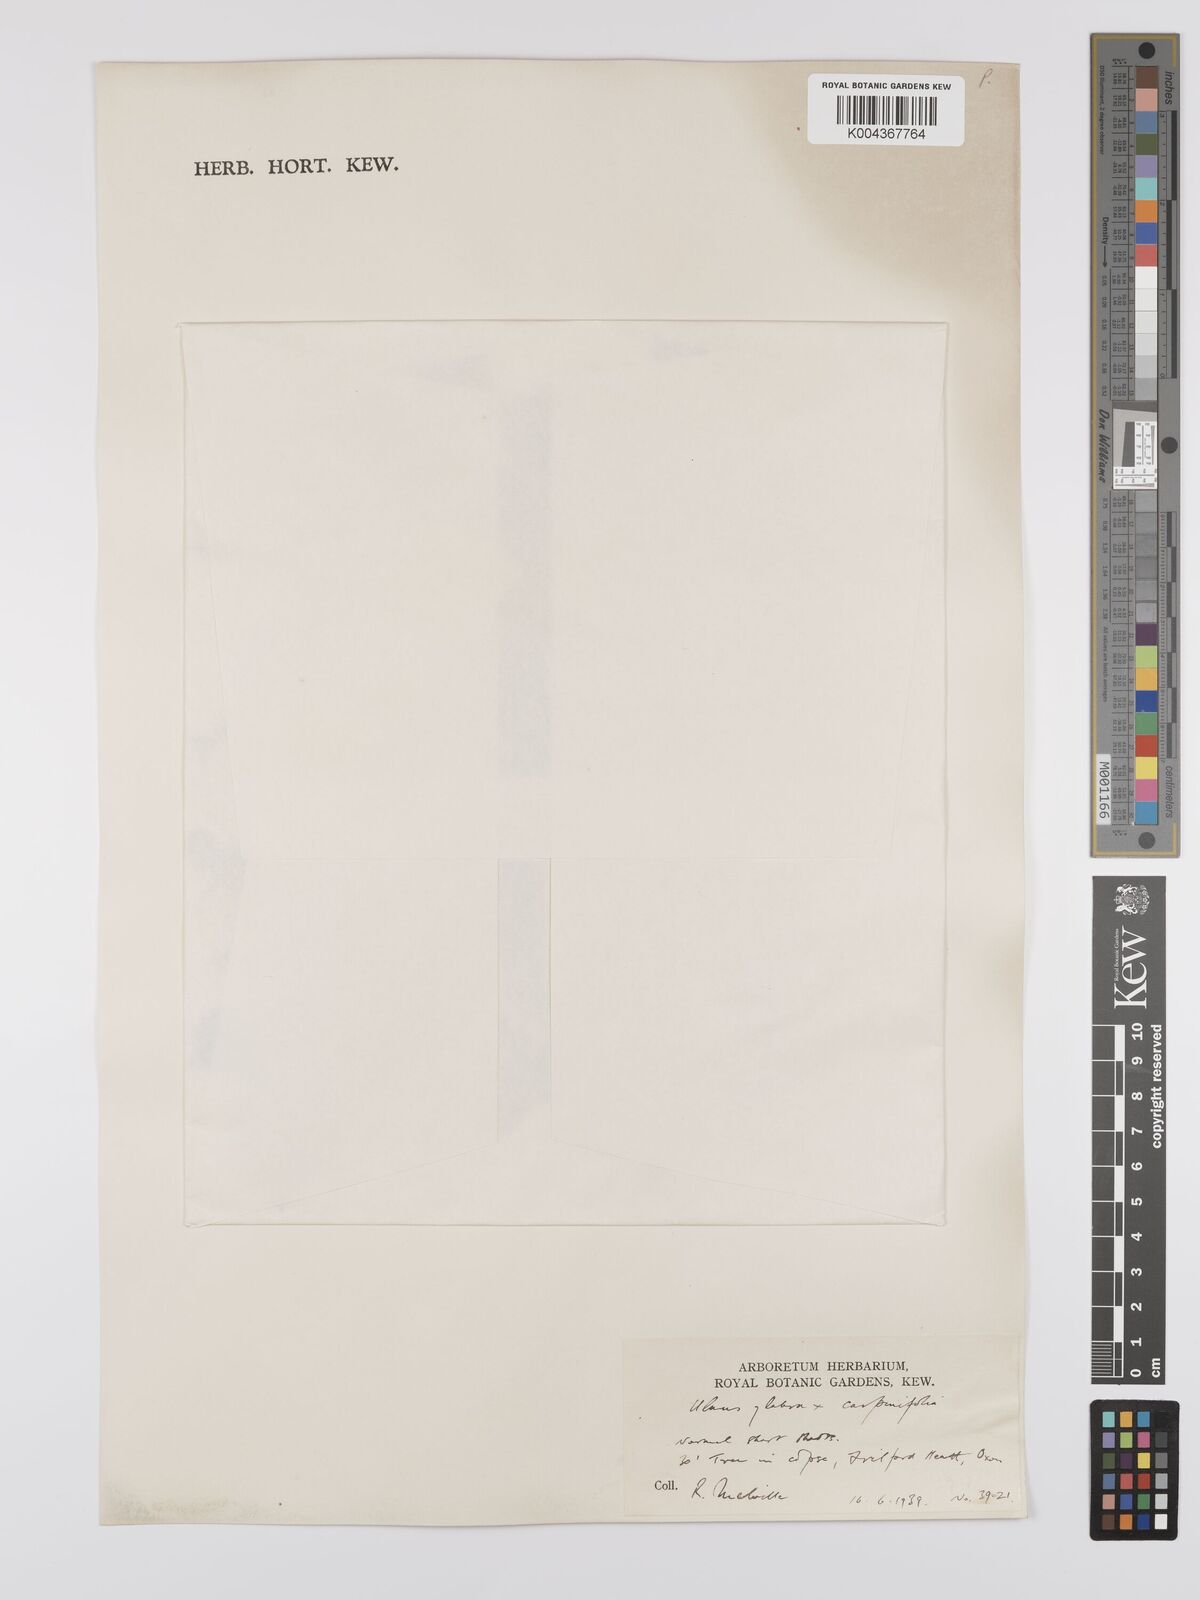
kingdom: Plantae
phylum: Tracheophyta
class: Magnoliopsida
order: Rosales
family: Ulmaceae
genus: Ulmus
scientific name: Ulmus
